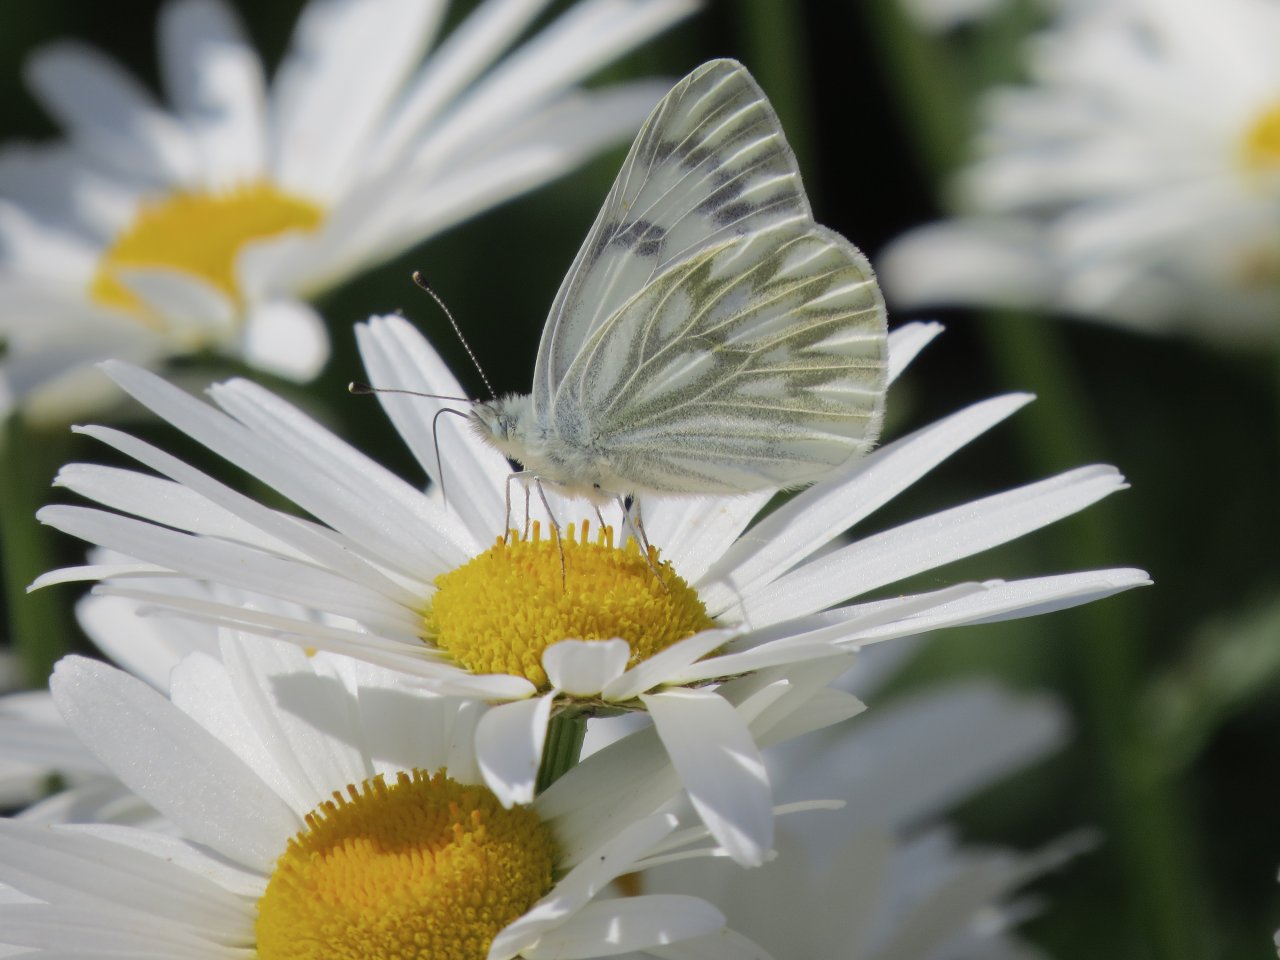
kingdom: Animalia
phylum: Arthropoda
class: Insecta
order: Lepidoptera
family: Pieridae
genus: Pontia
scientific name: Pontia occidentalis
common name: Western White
